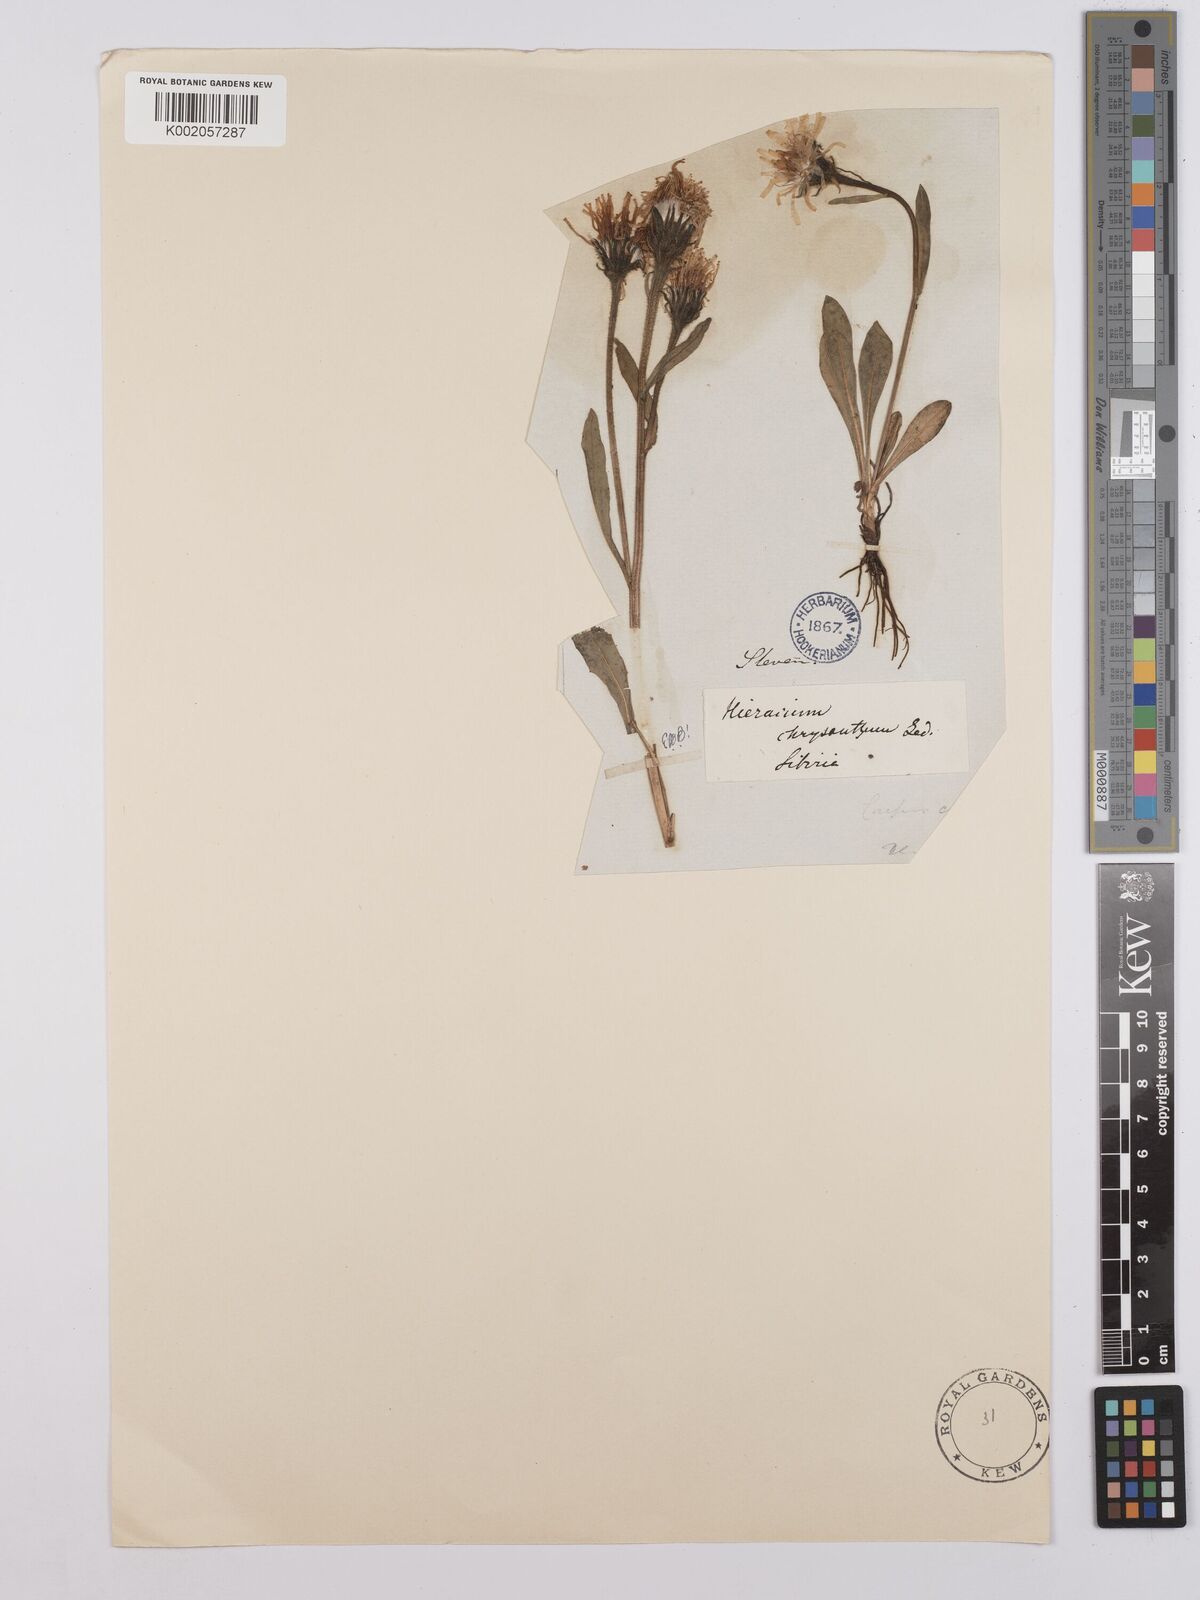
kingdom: Plantae
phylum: Tracheophyta
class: Magnoliopsida
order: Asterales
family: Asteraceae
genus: Crepis
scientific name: Crepis chrysantha
